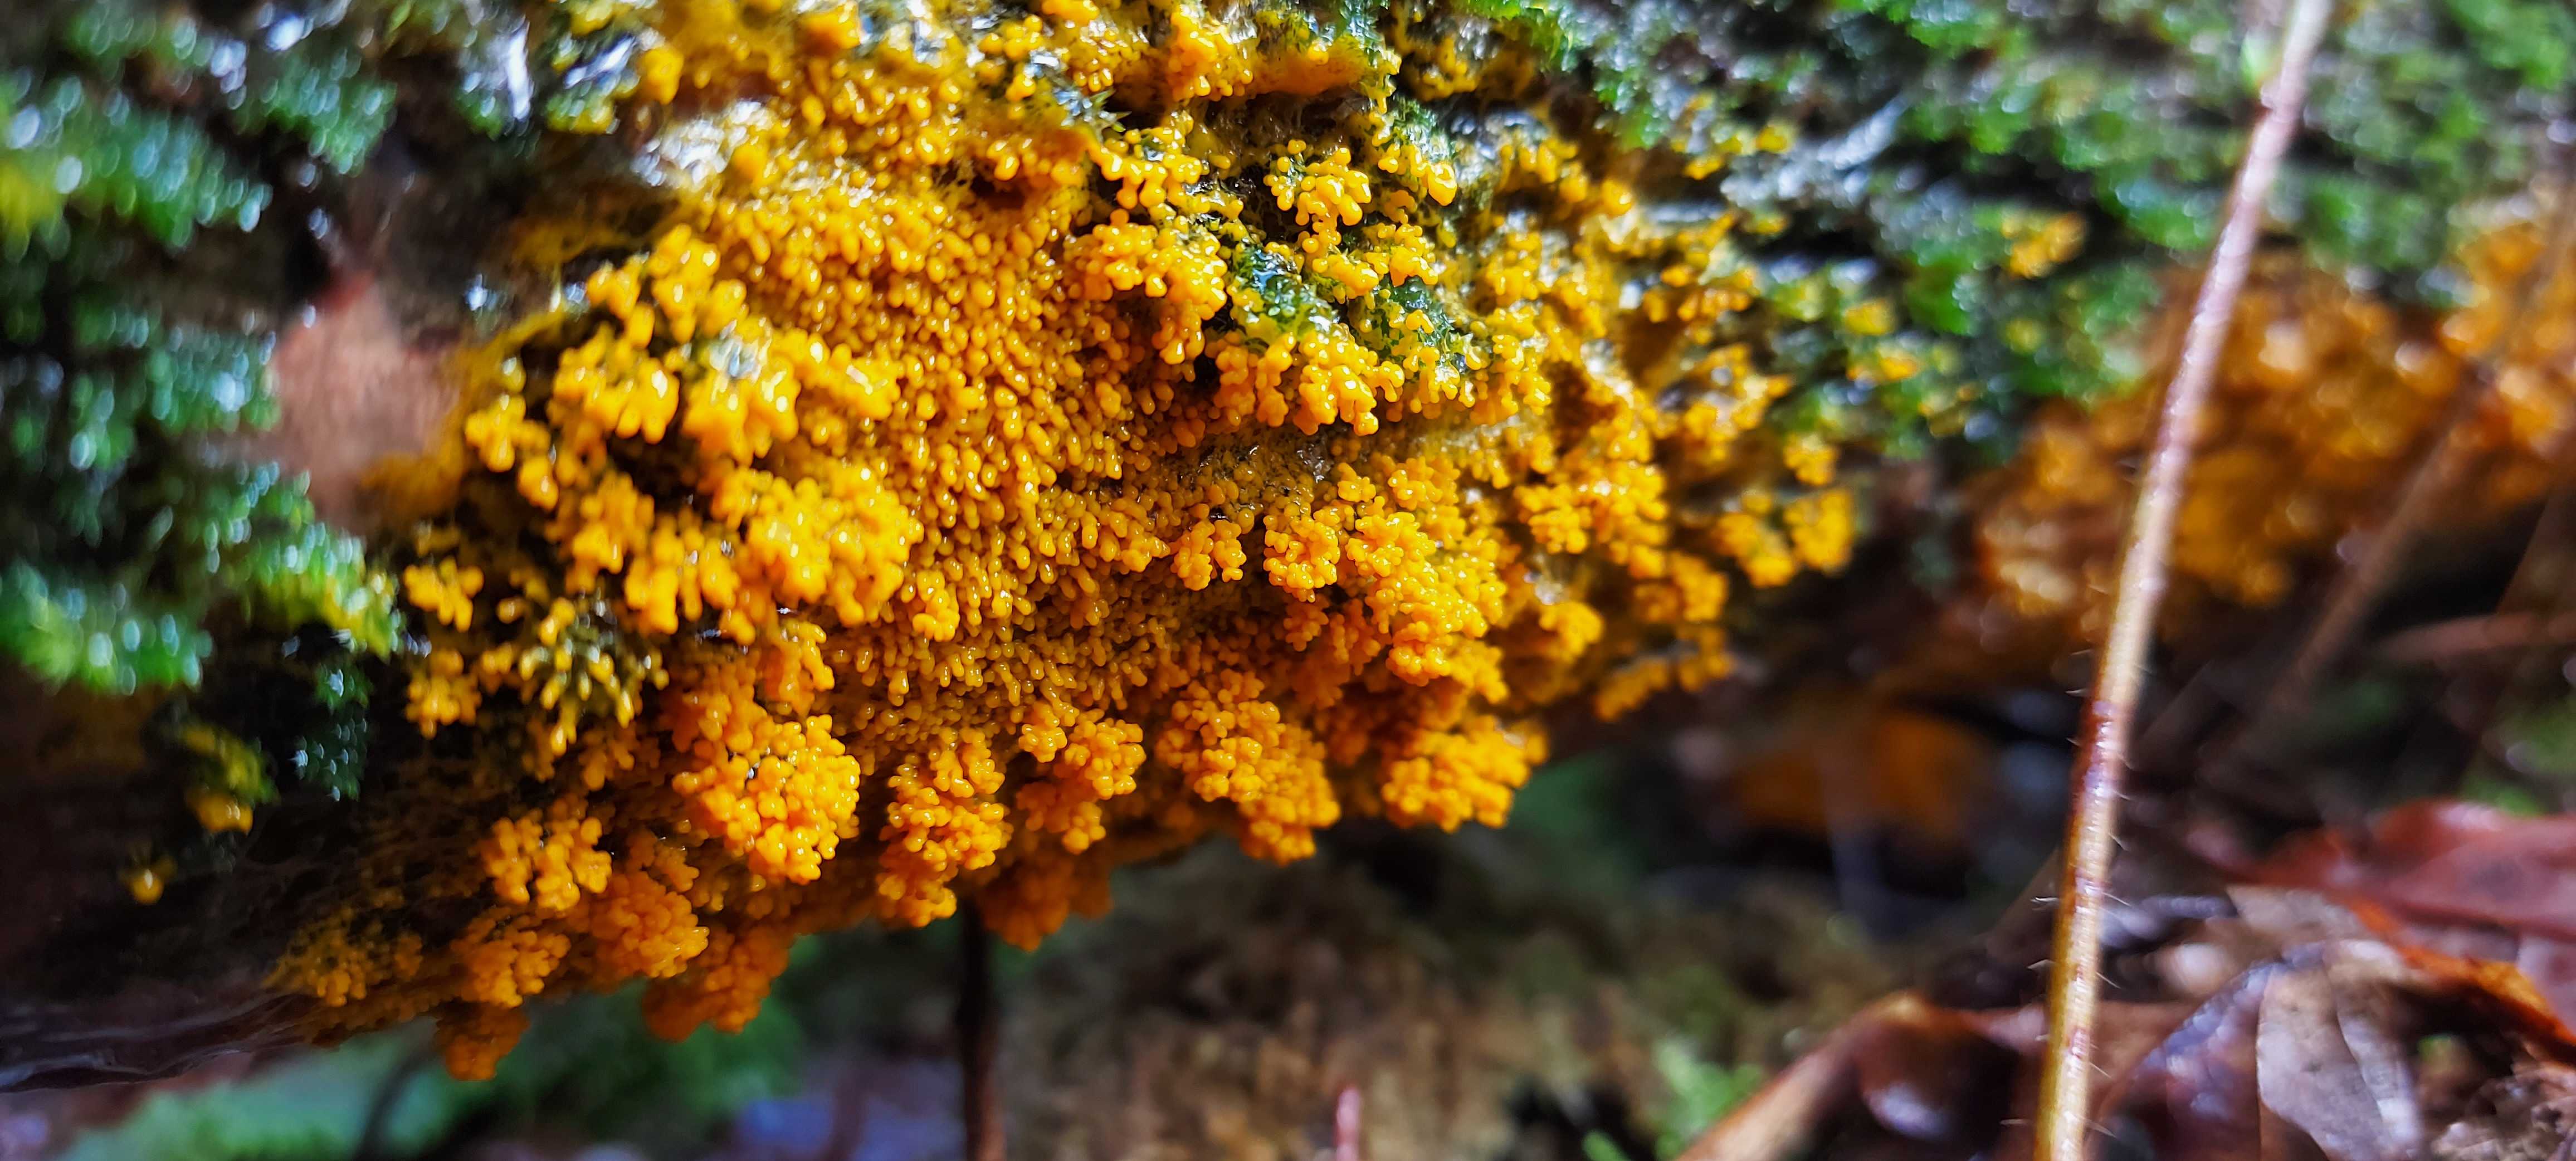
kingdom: Protozoa
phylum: Mycetozoa
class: Myxomycetes
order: Physarales
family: Physaraceae
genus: Badhamia
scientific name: Badhamia utricularis
